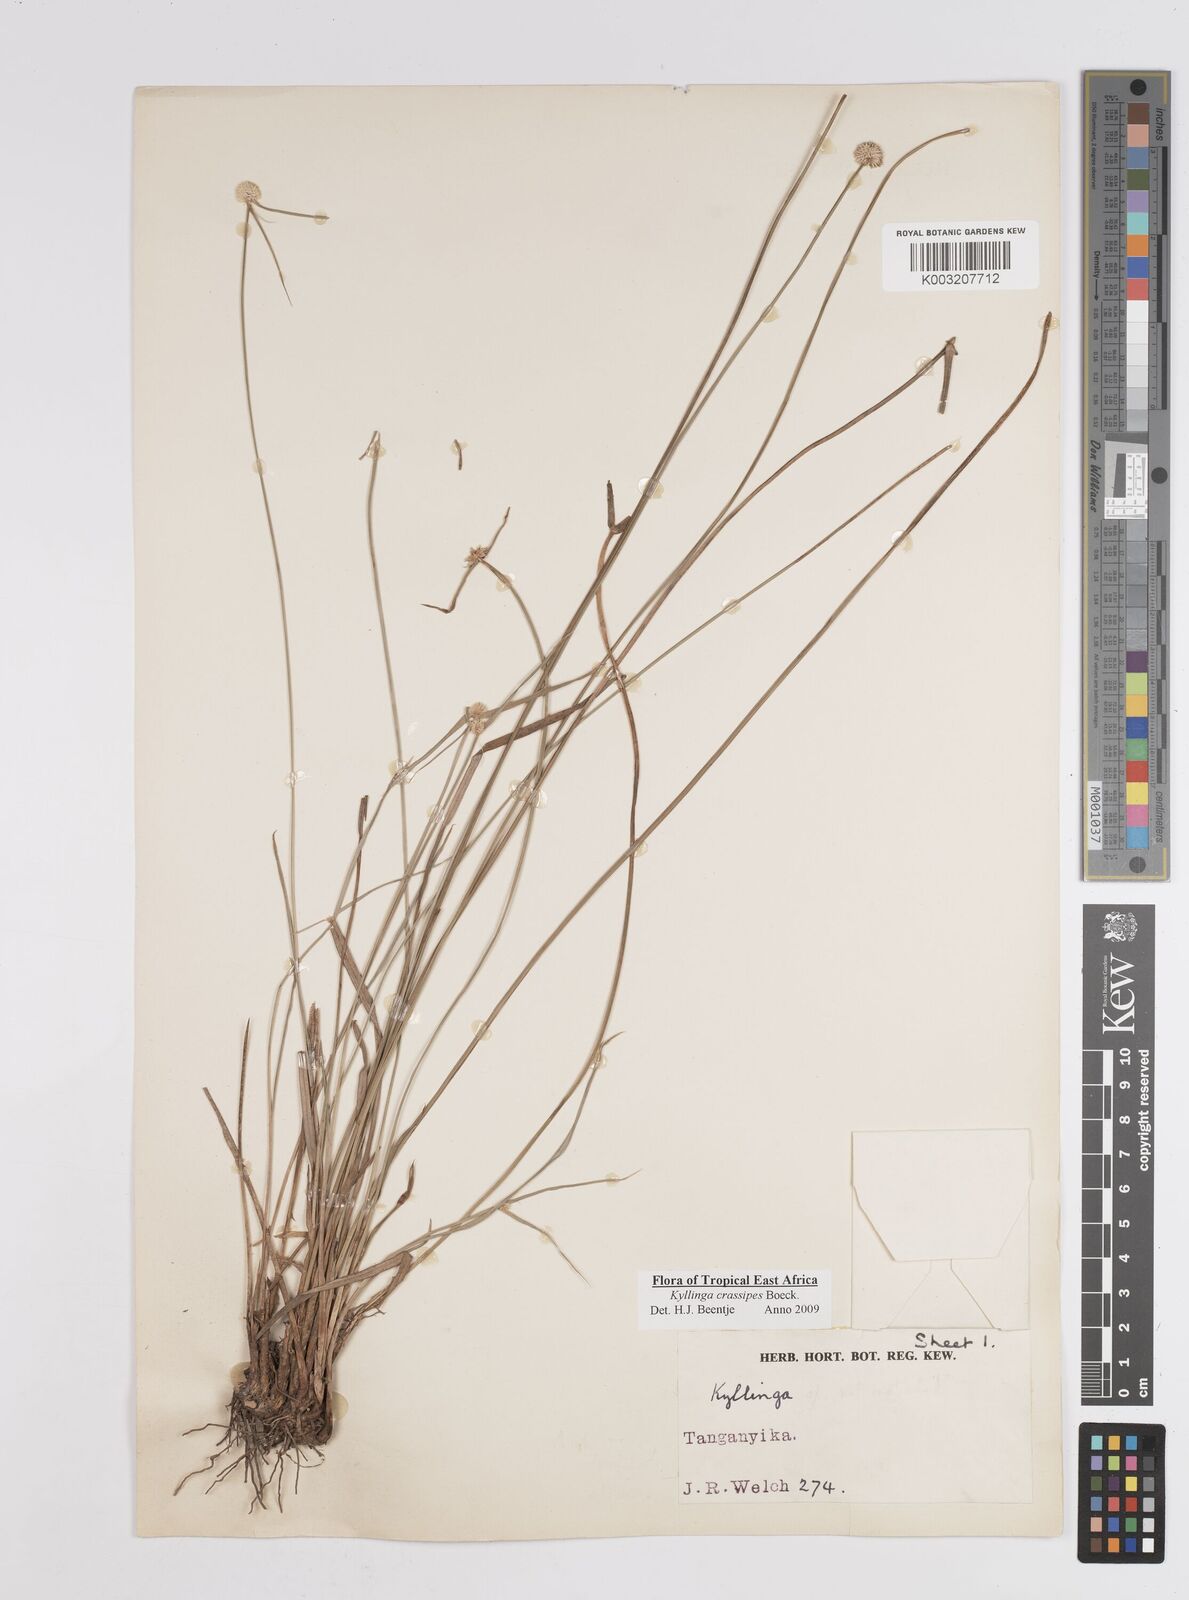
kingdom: Plantae
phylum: Tracheophyta
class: Liliopsida
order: Poales
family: Cyperaceae
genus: Cyperus
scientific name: Cyperus
